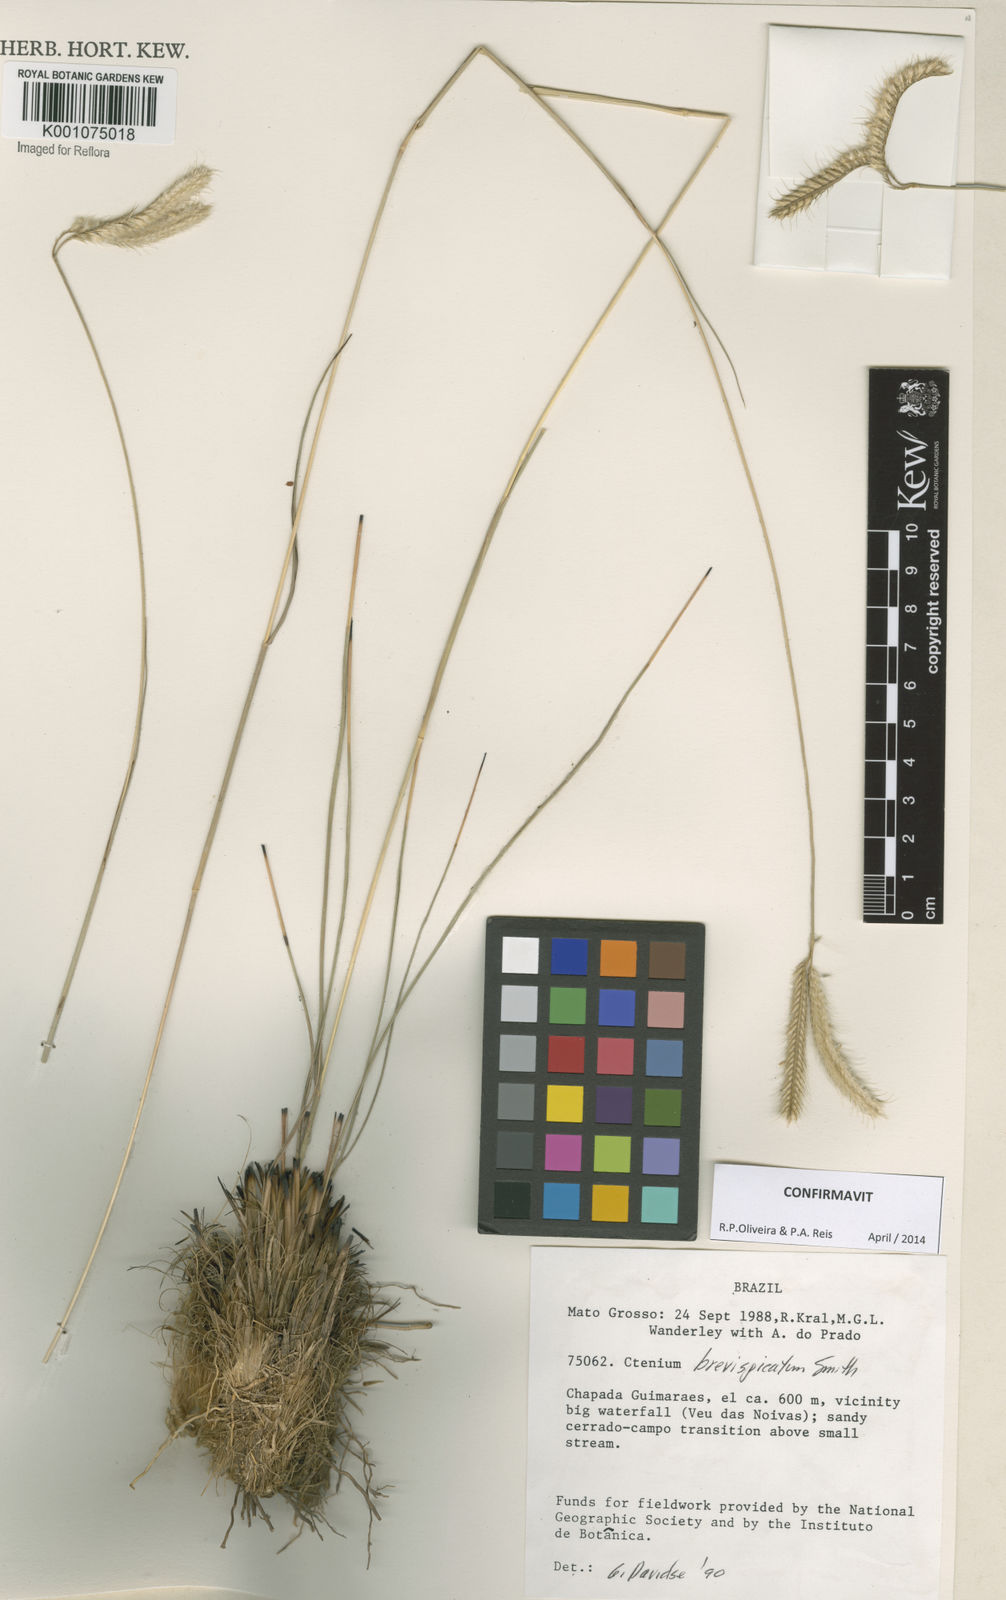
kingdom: Plantae
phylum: Tracheophyta
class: Liliopsida
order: Poales
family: Poaceae
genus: Ctenium
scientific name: Ctenium brevispicatum
